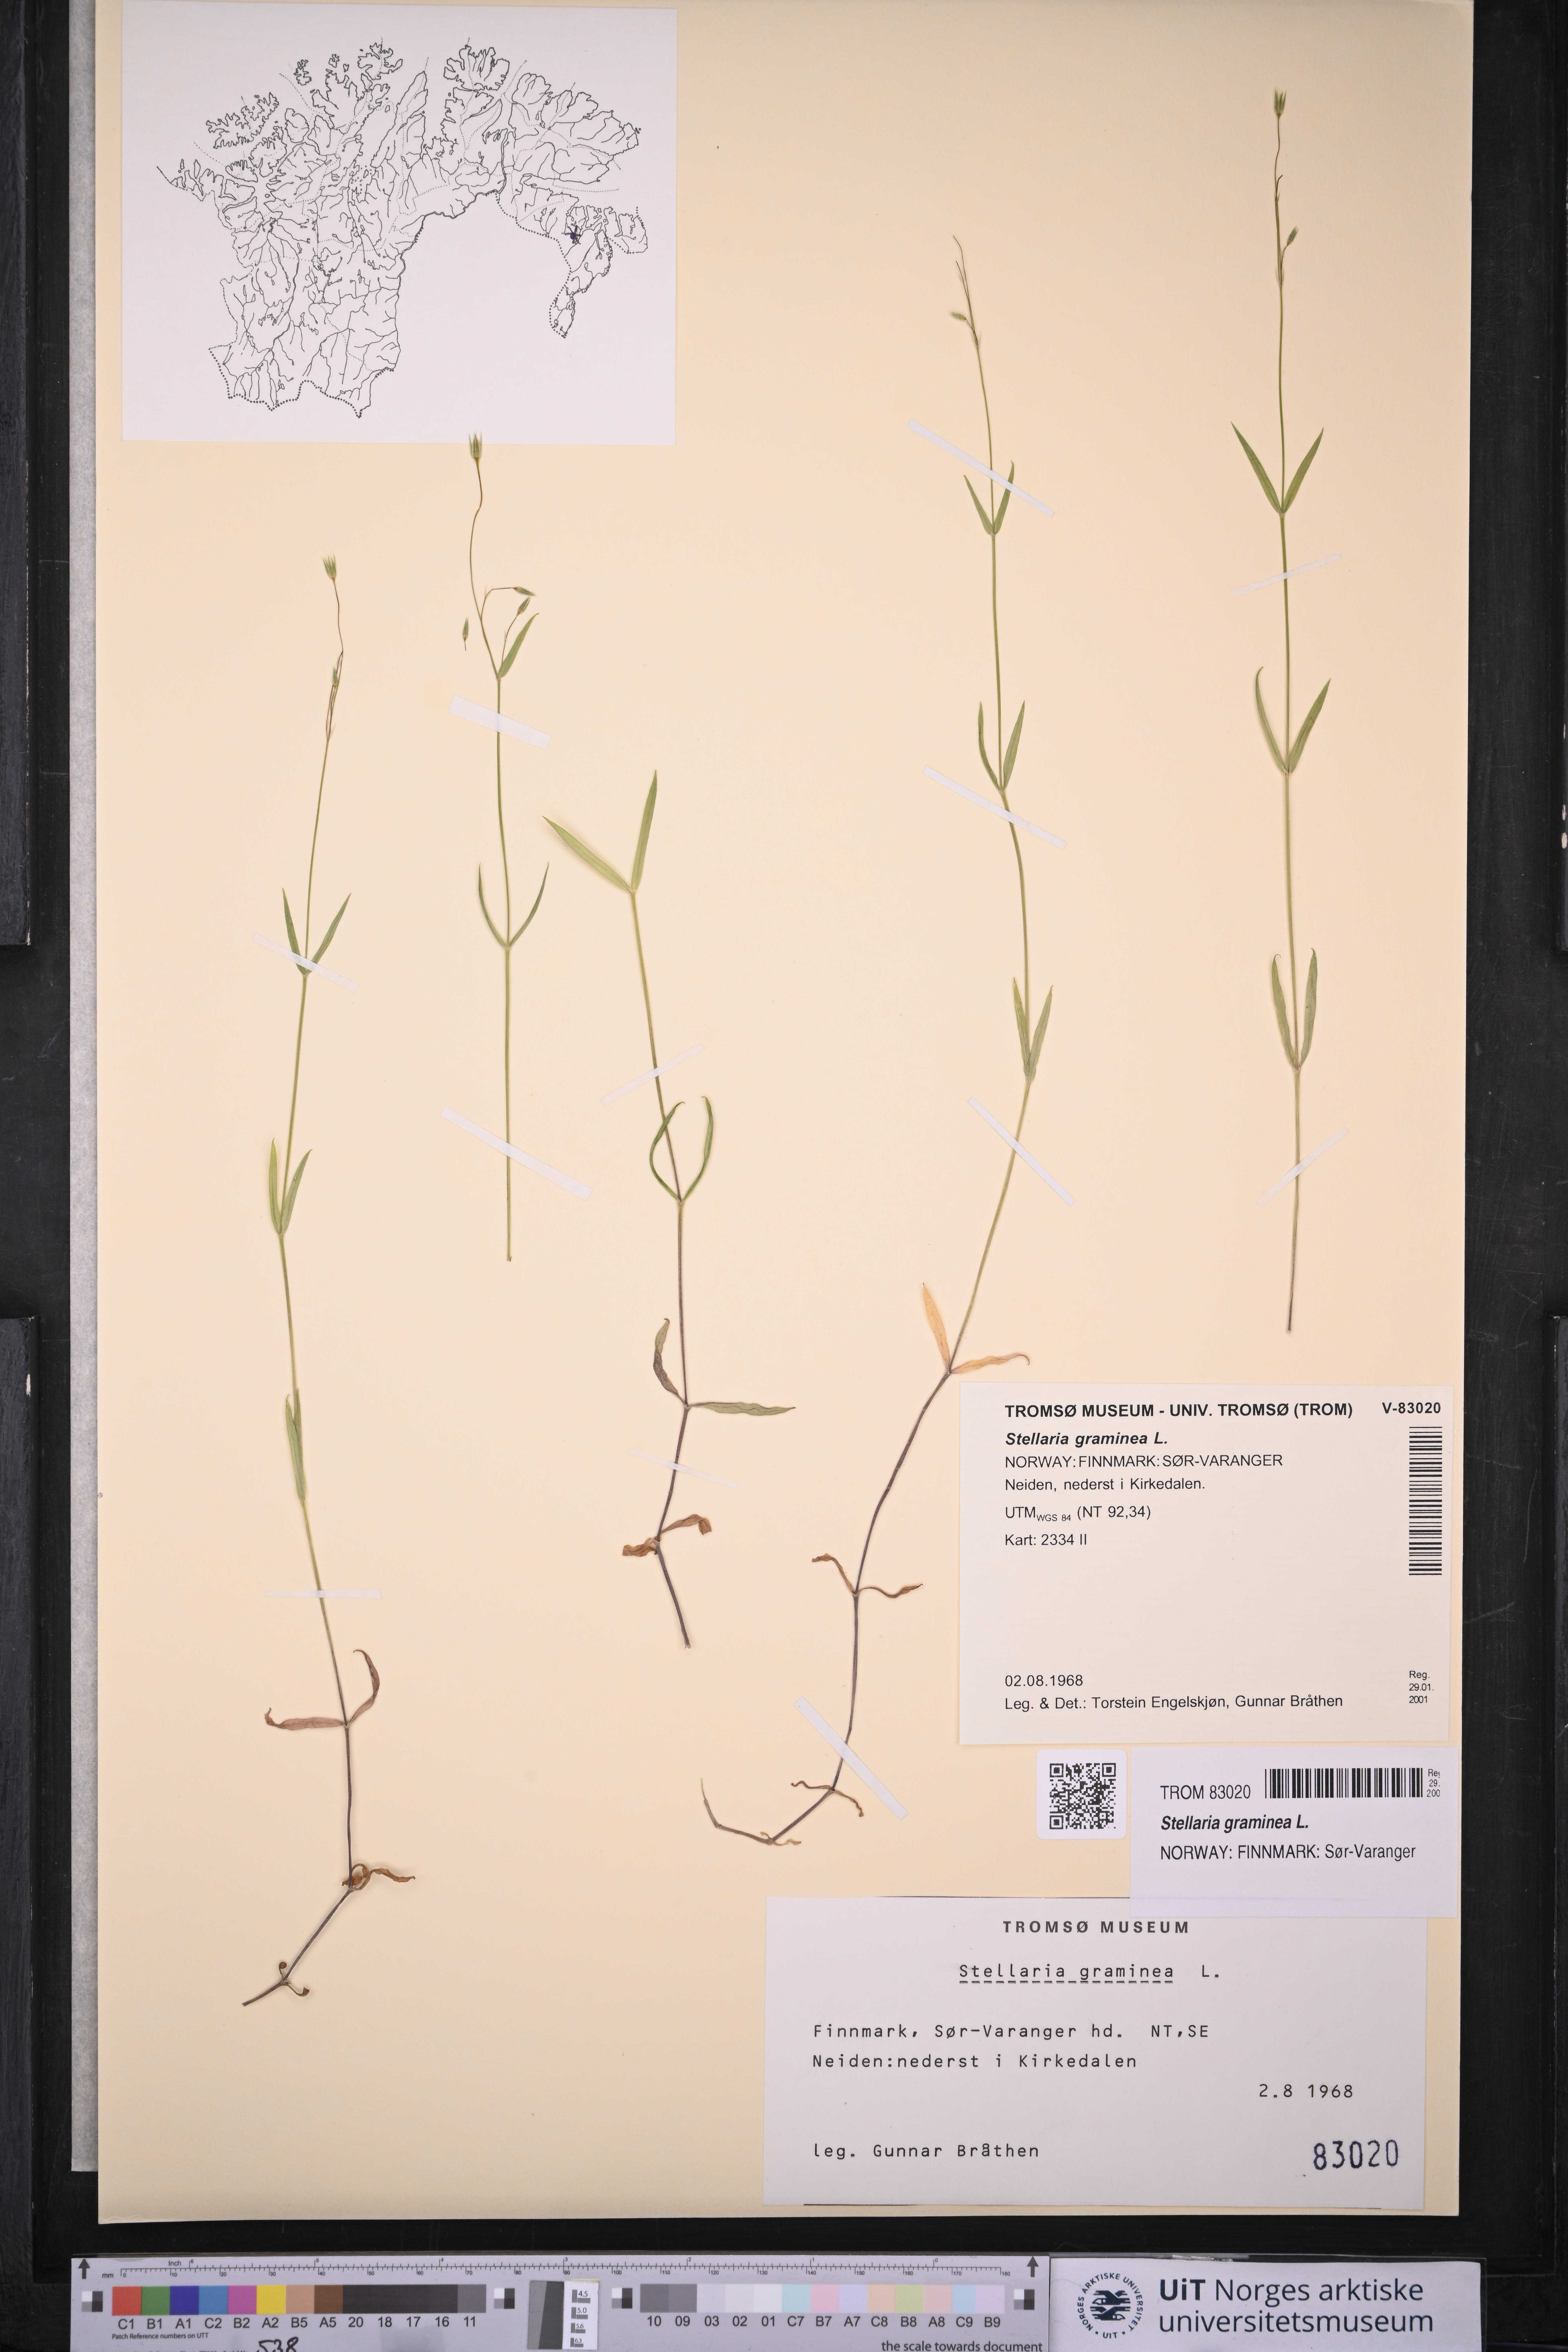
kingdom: Plantae
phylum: Tracheophyta
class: Magnoliopsida
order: Caryophyllales
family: Caryophyllaceae
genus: Stellaria
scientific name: Stellaria graminea
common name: Grass-like starwort
